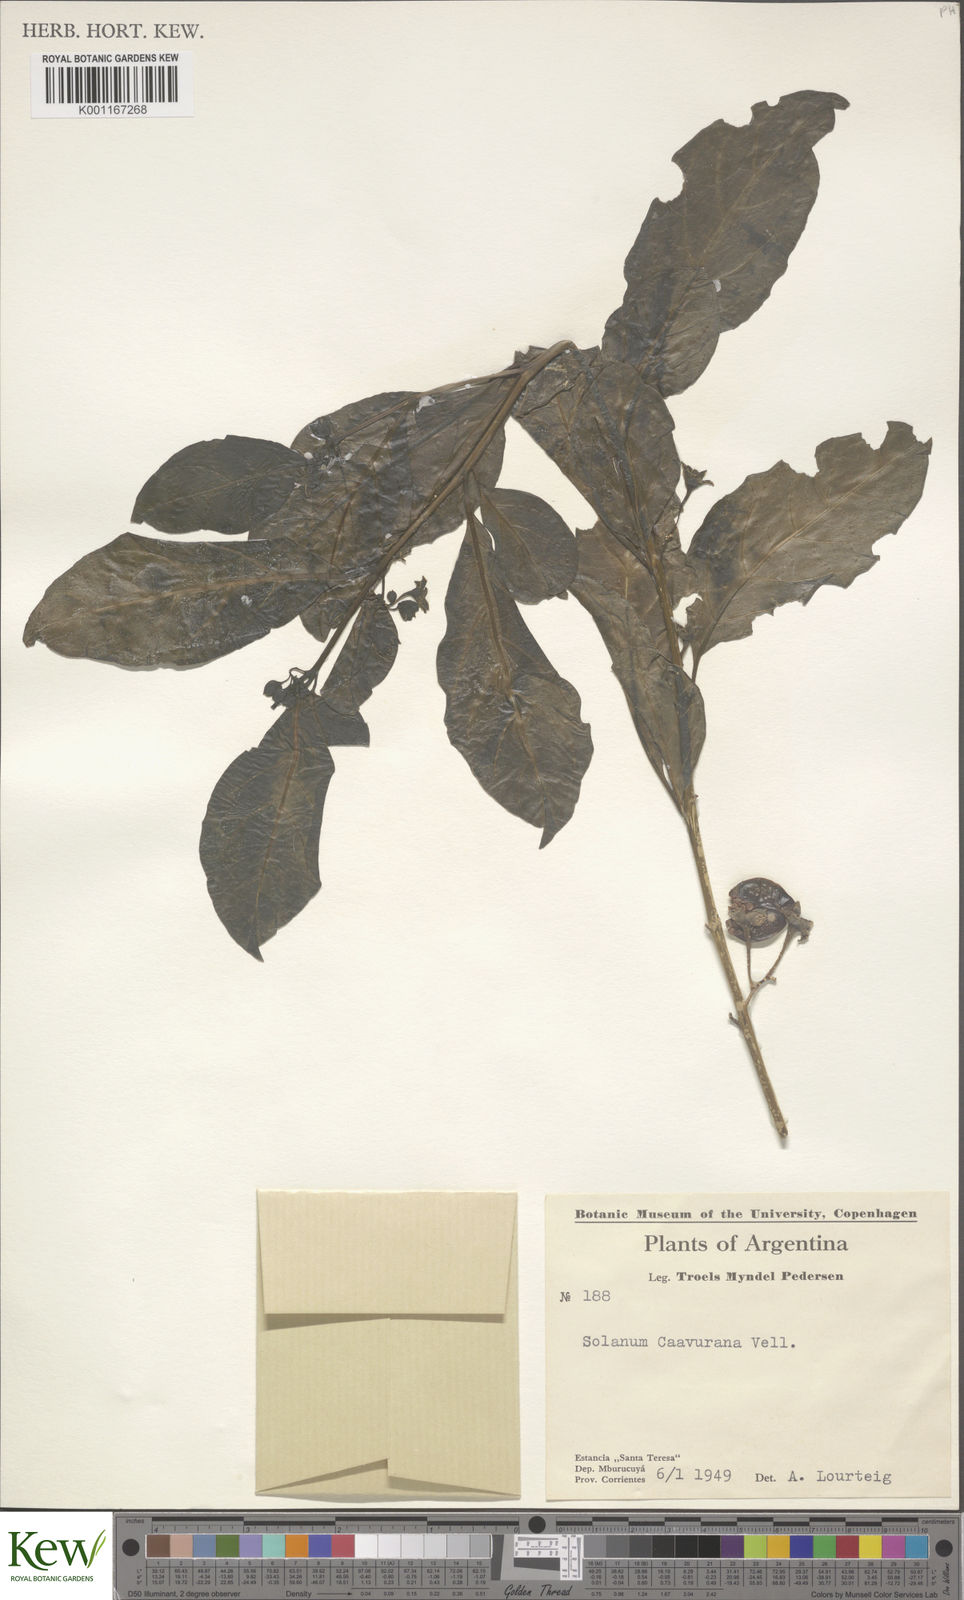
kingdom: Plantae
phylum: Tracheophyta
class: Magnoliopsida
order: Solanales
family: Solanaceae
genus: Solanum
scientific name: Solanum caavurana
